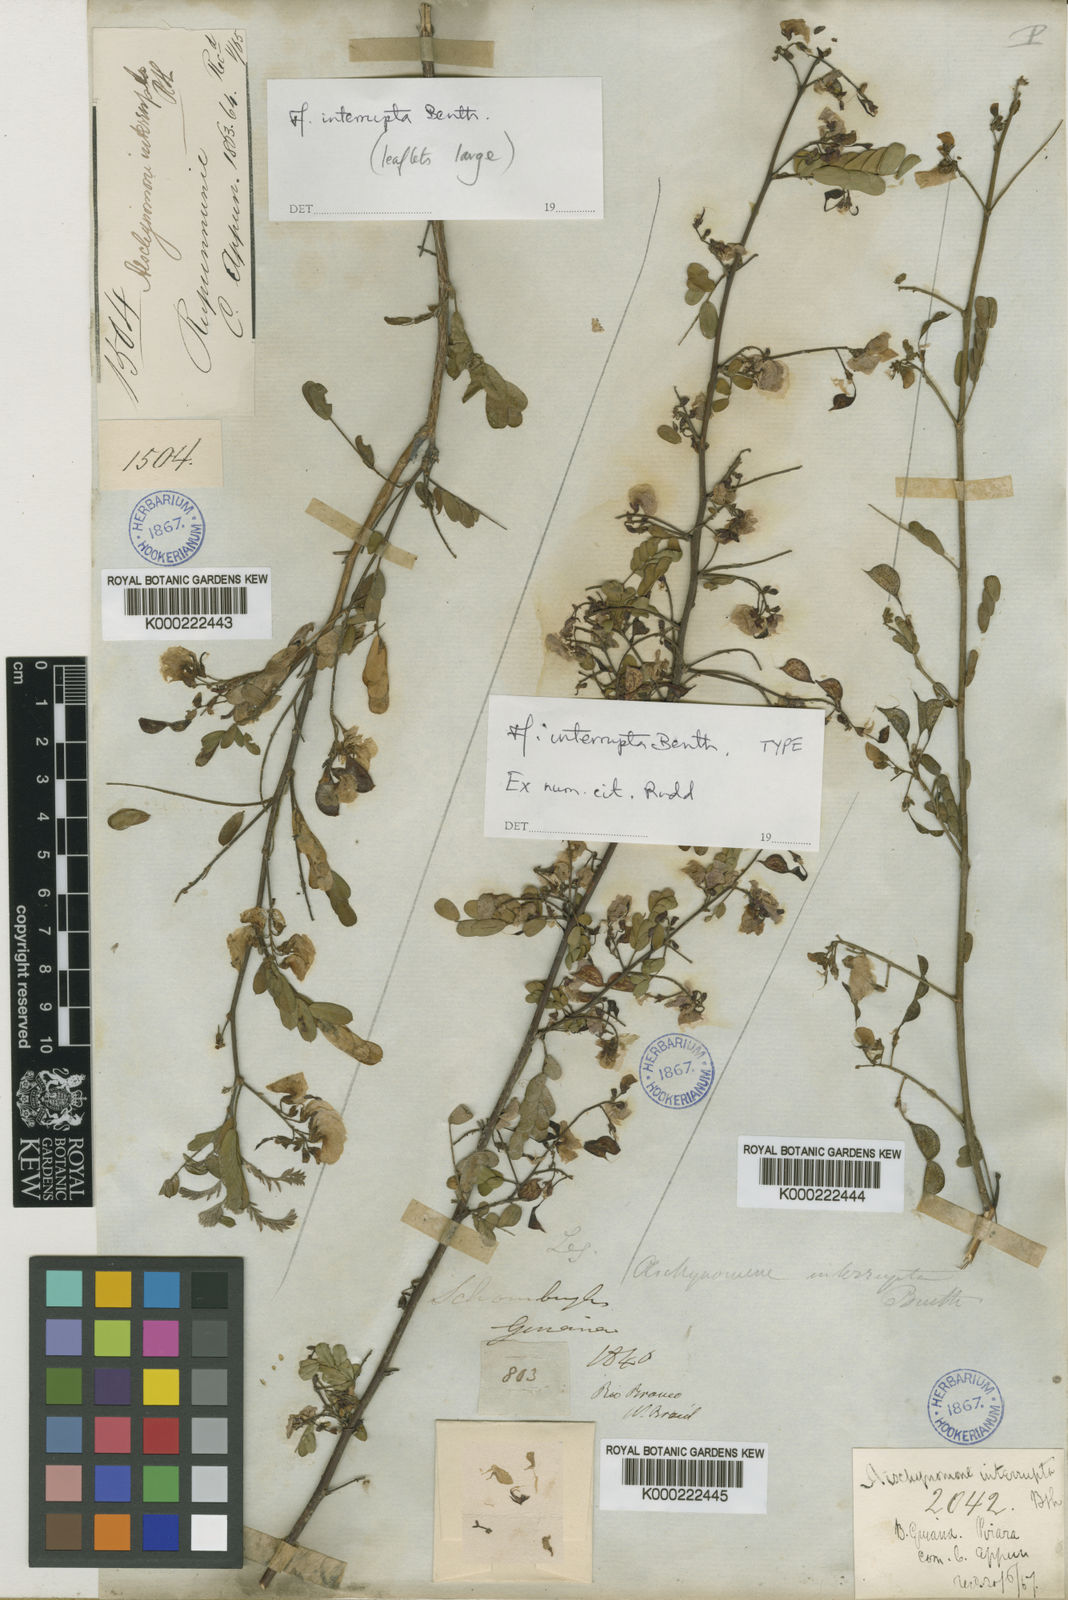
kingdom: Plantae
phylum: Tracheophyta
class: Magnoliopsida
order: Fabales
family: Fabaceae
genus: Ctenodon
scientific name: Ctenodon interruptus
